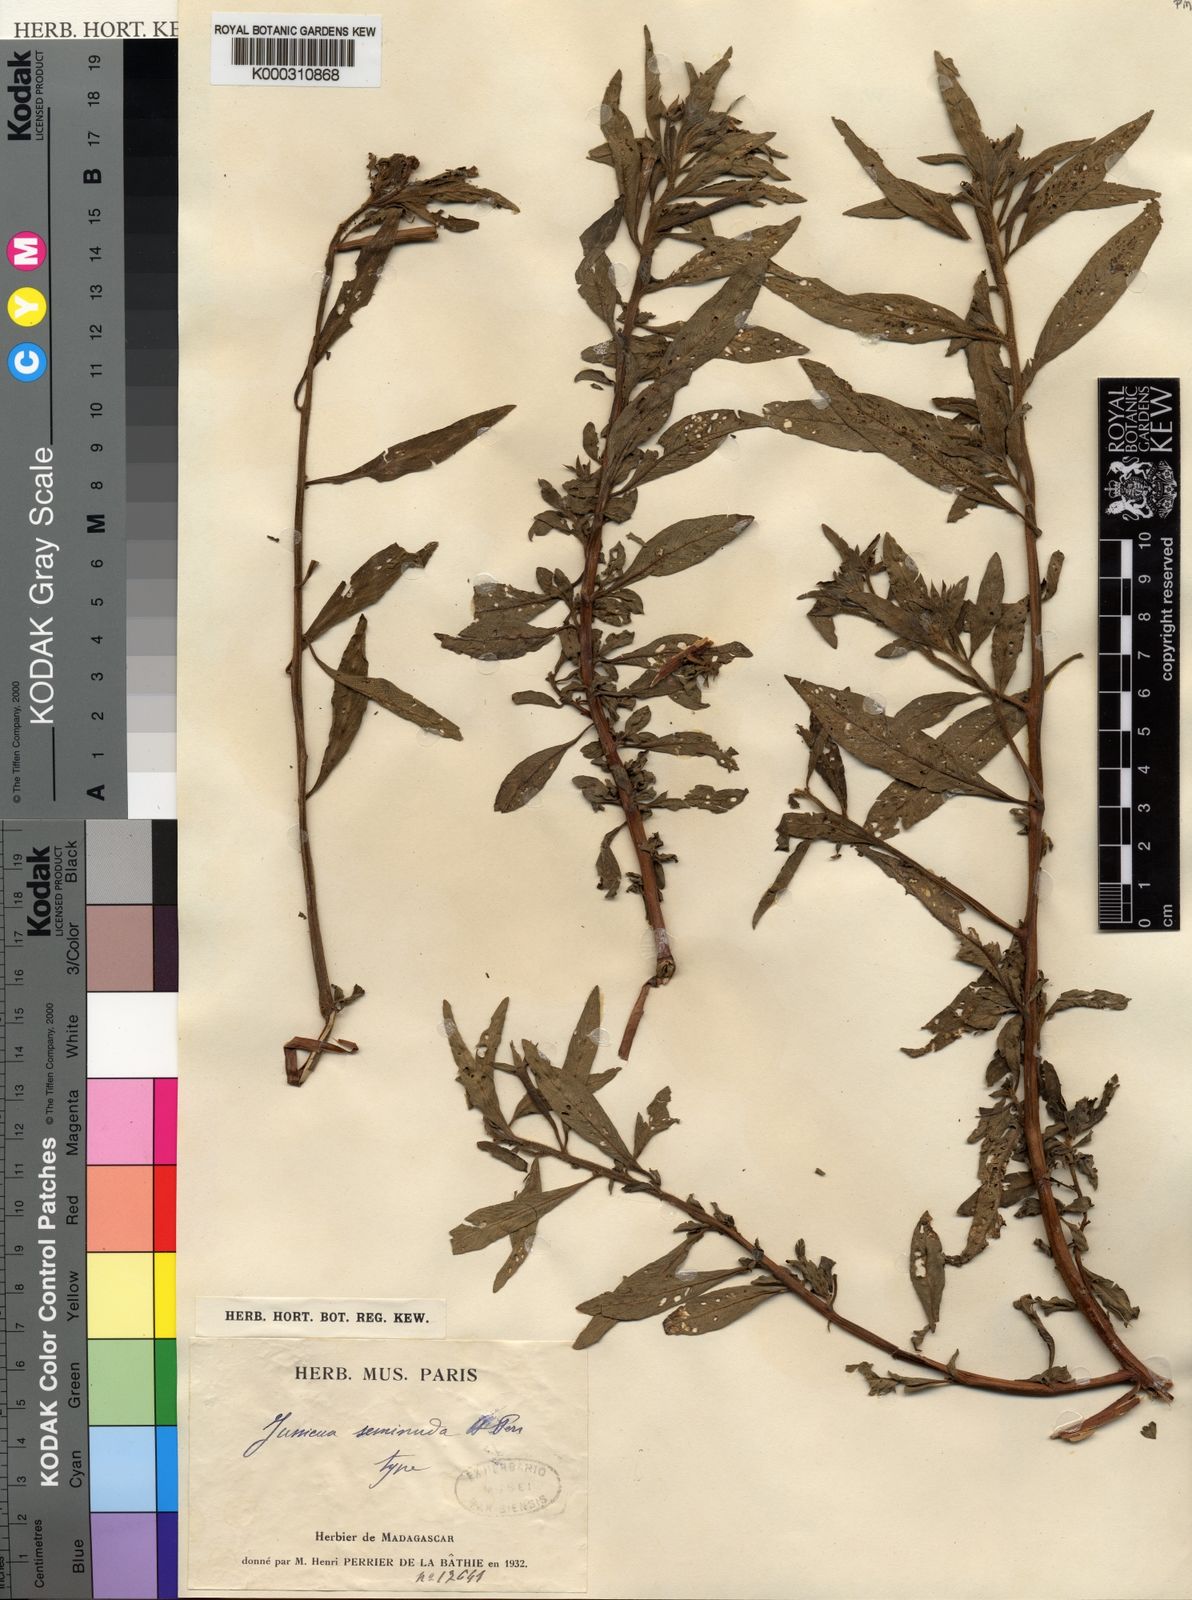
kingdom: Plantae
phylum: Tracheophyta
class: Magnoliopsida
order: Myrtales
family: Onagraceae
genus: Ludwigia
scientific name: Ludwigia leptocarpa
